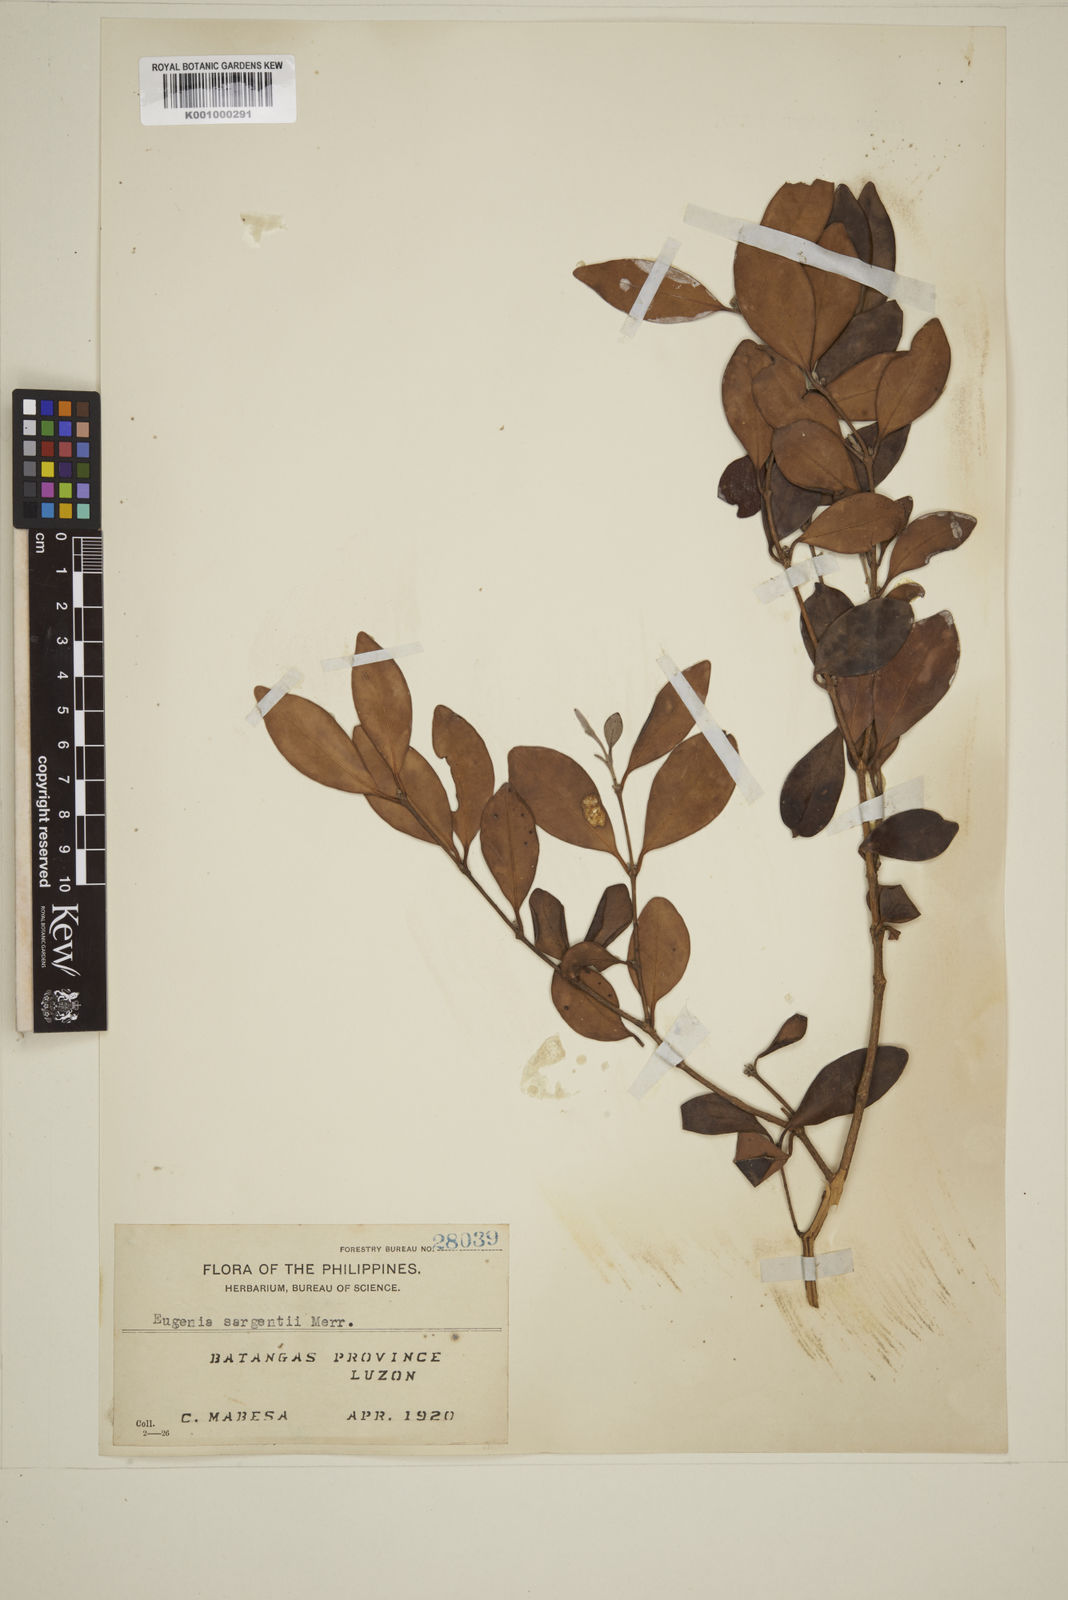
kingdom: Plantae
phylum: Tracheophyta
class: Magnoliopsida
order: Myrtales
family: Myrtaceae
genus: Eugenia
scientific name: Eugenia sargentii
